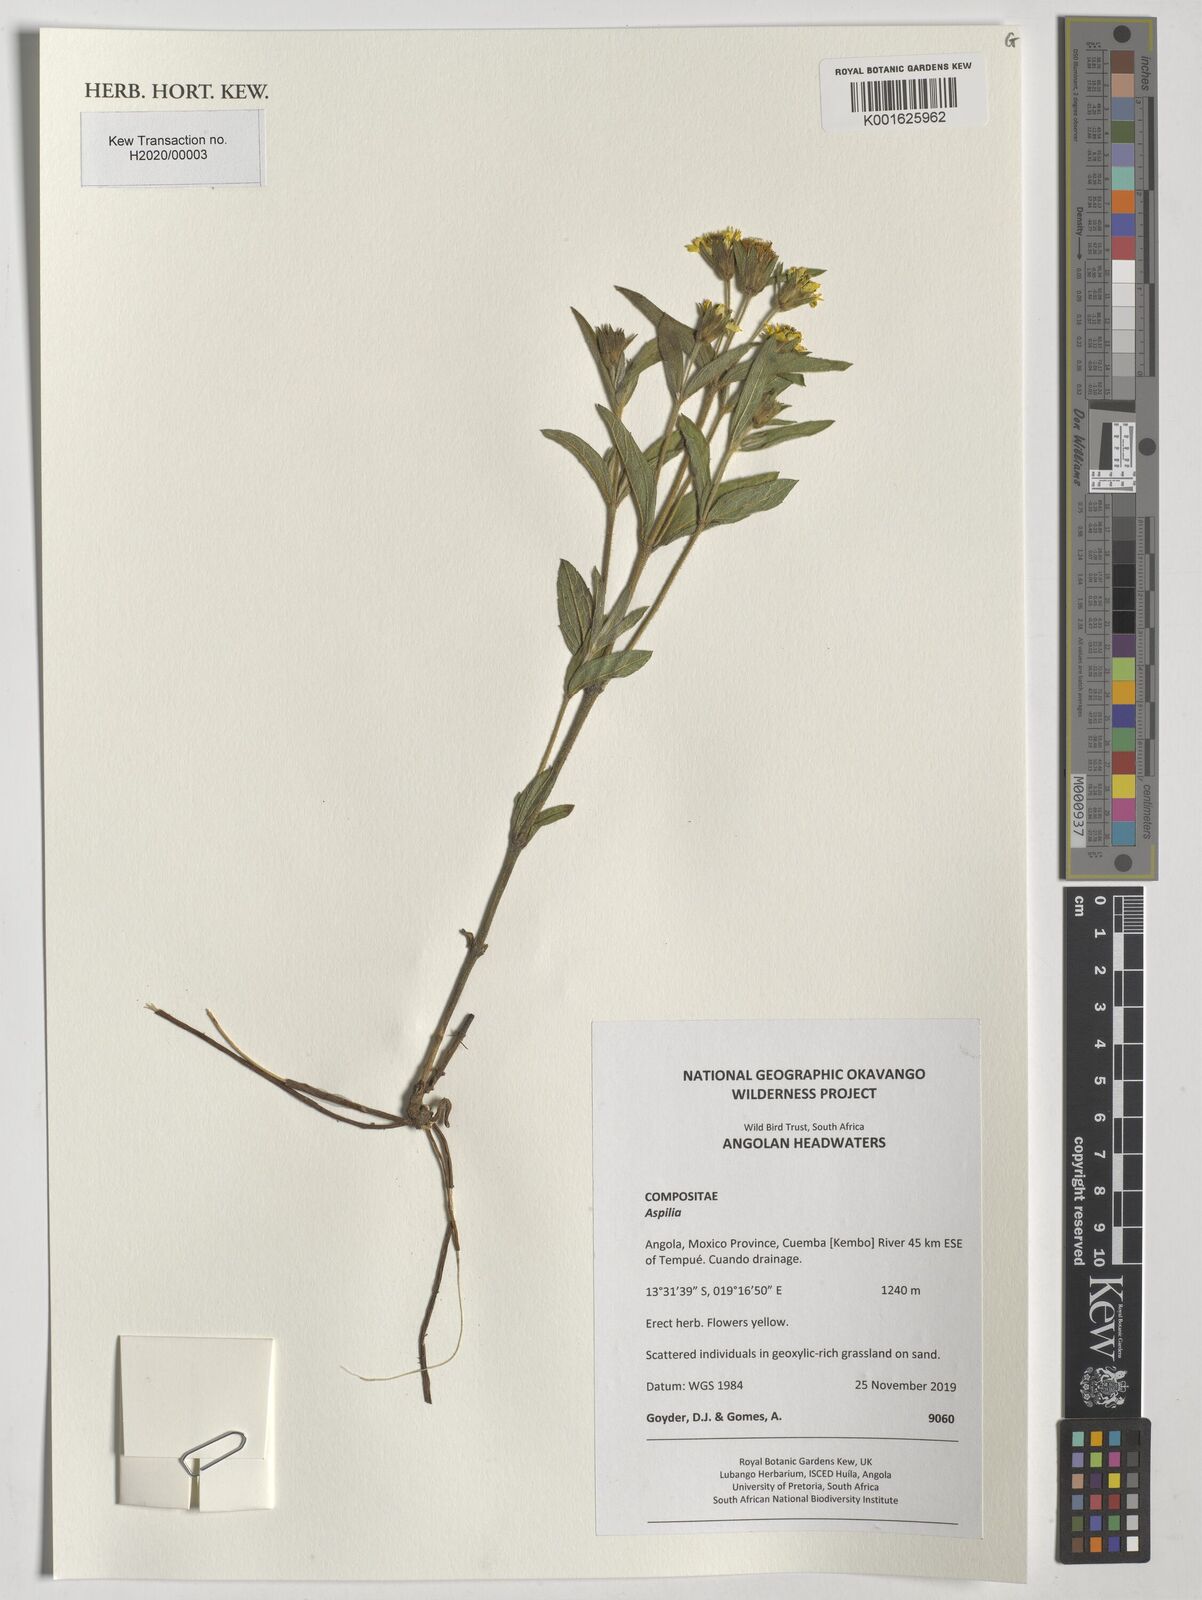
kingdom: Plantae
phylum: Tracheophyta
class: Magnoliopsida
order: Asterales
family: Asteraceae
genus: Aspilia
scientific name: Aspilia
